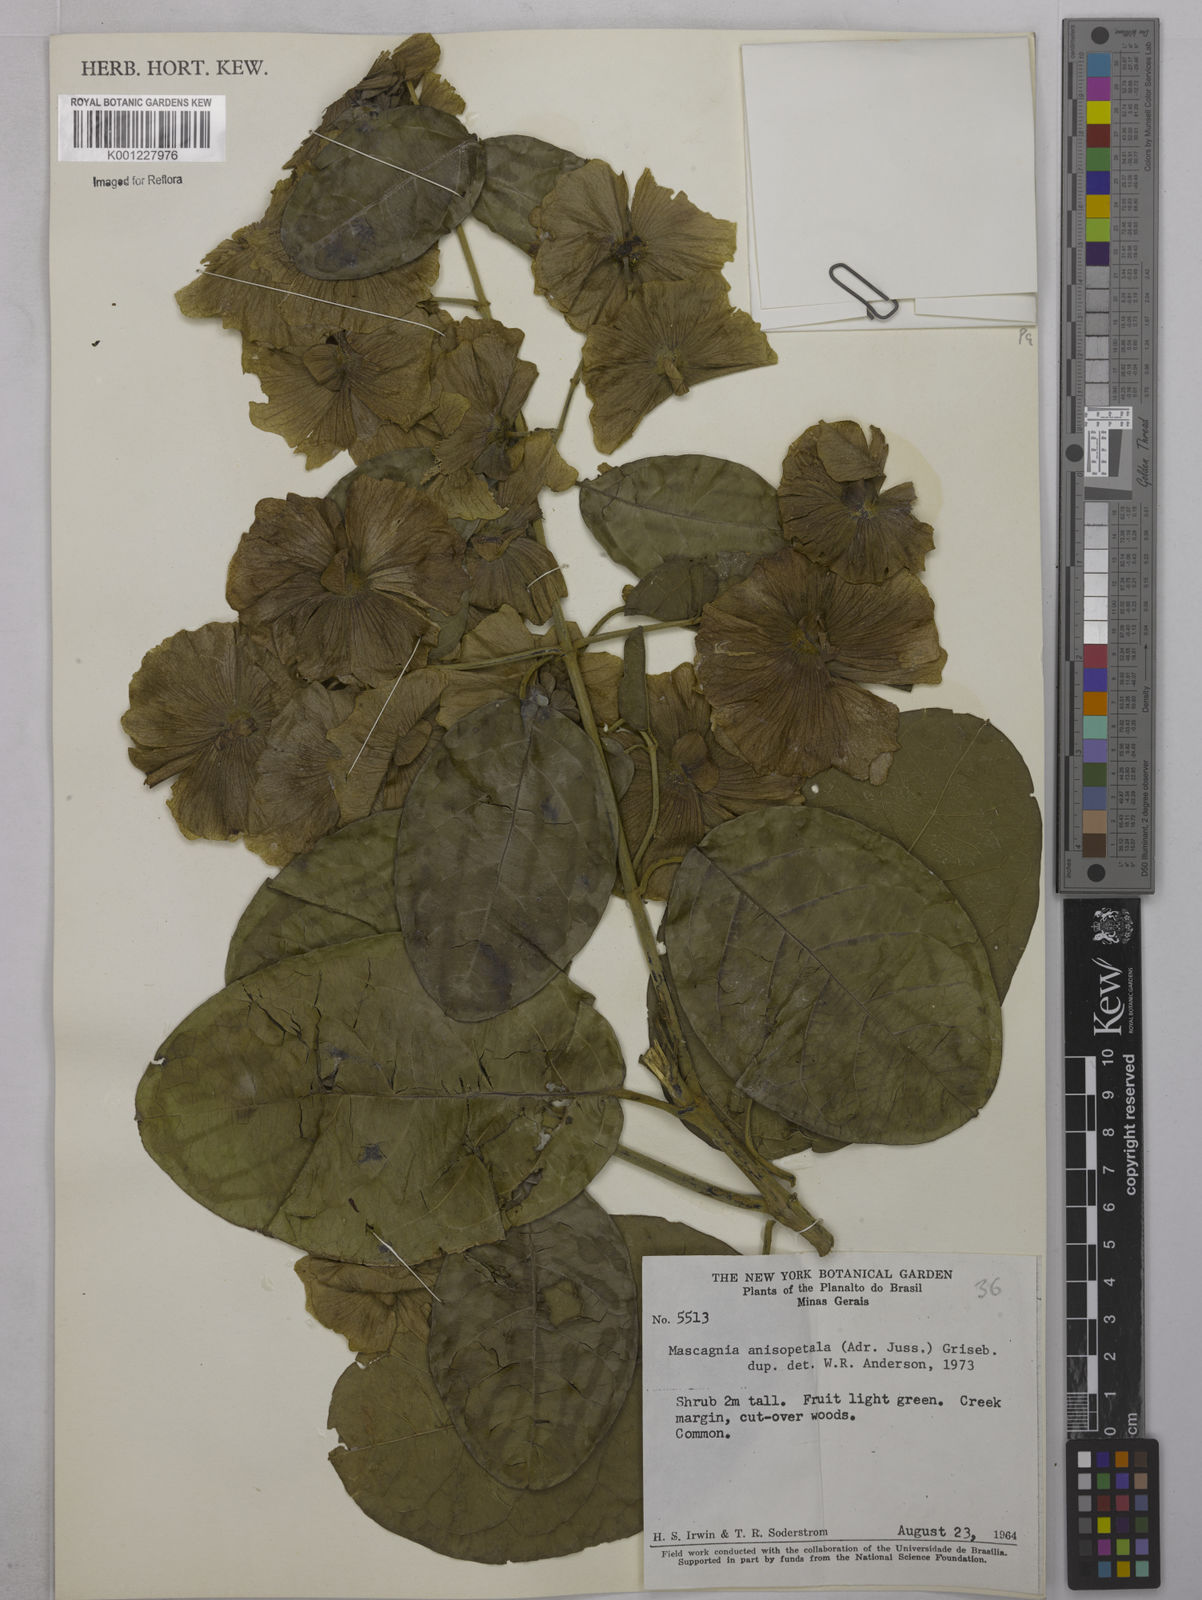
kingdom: Plantae
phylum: Tracheophyta
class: Magnoliopsida
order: Malpighiales
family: Malpighiaceae
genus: Alicia
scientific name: Alicia anisopetala
